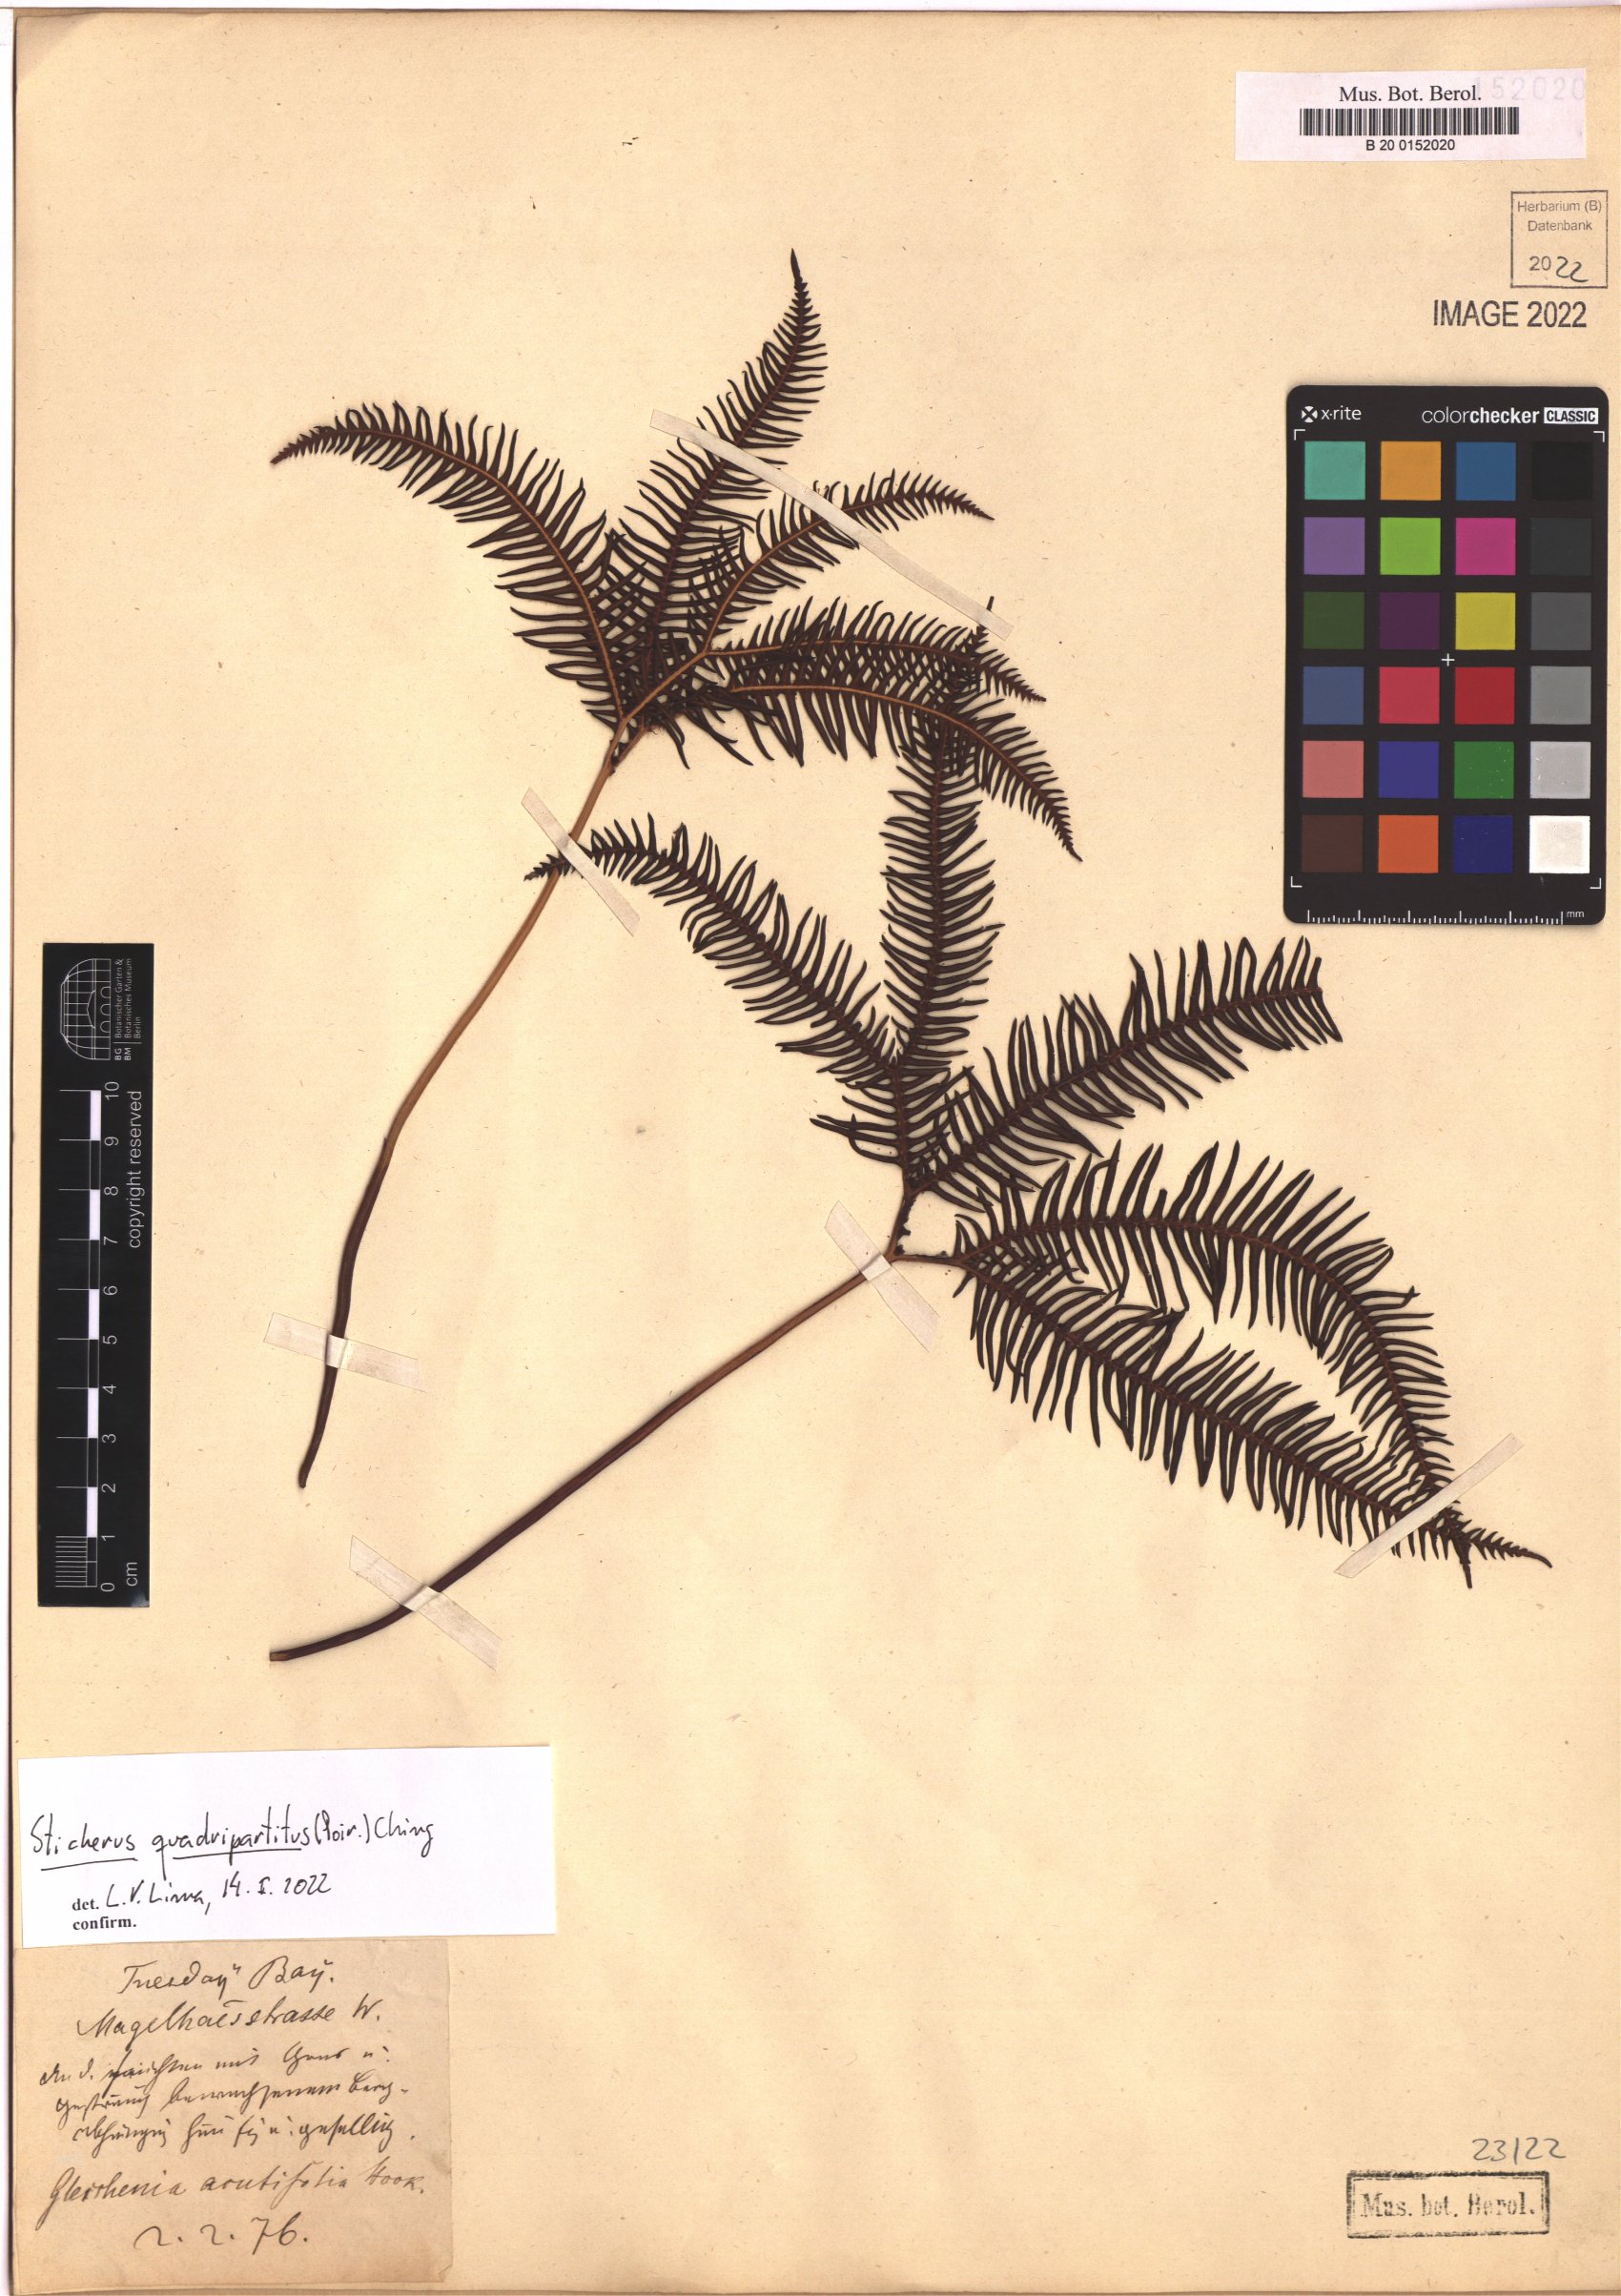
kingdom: Plantae
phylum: Tracheophyta
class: Polypodiopsida
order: Gleicheniales
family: Gleicheniaceae
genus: Sticherus
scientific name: Sticherus quadripartitus
